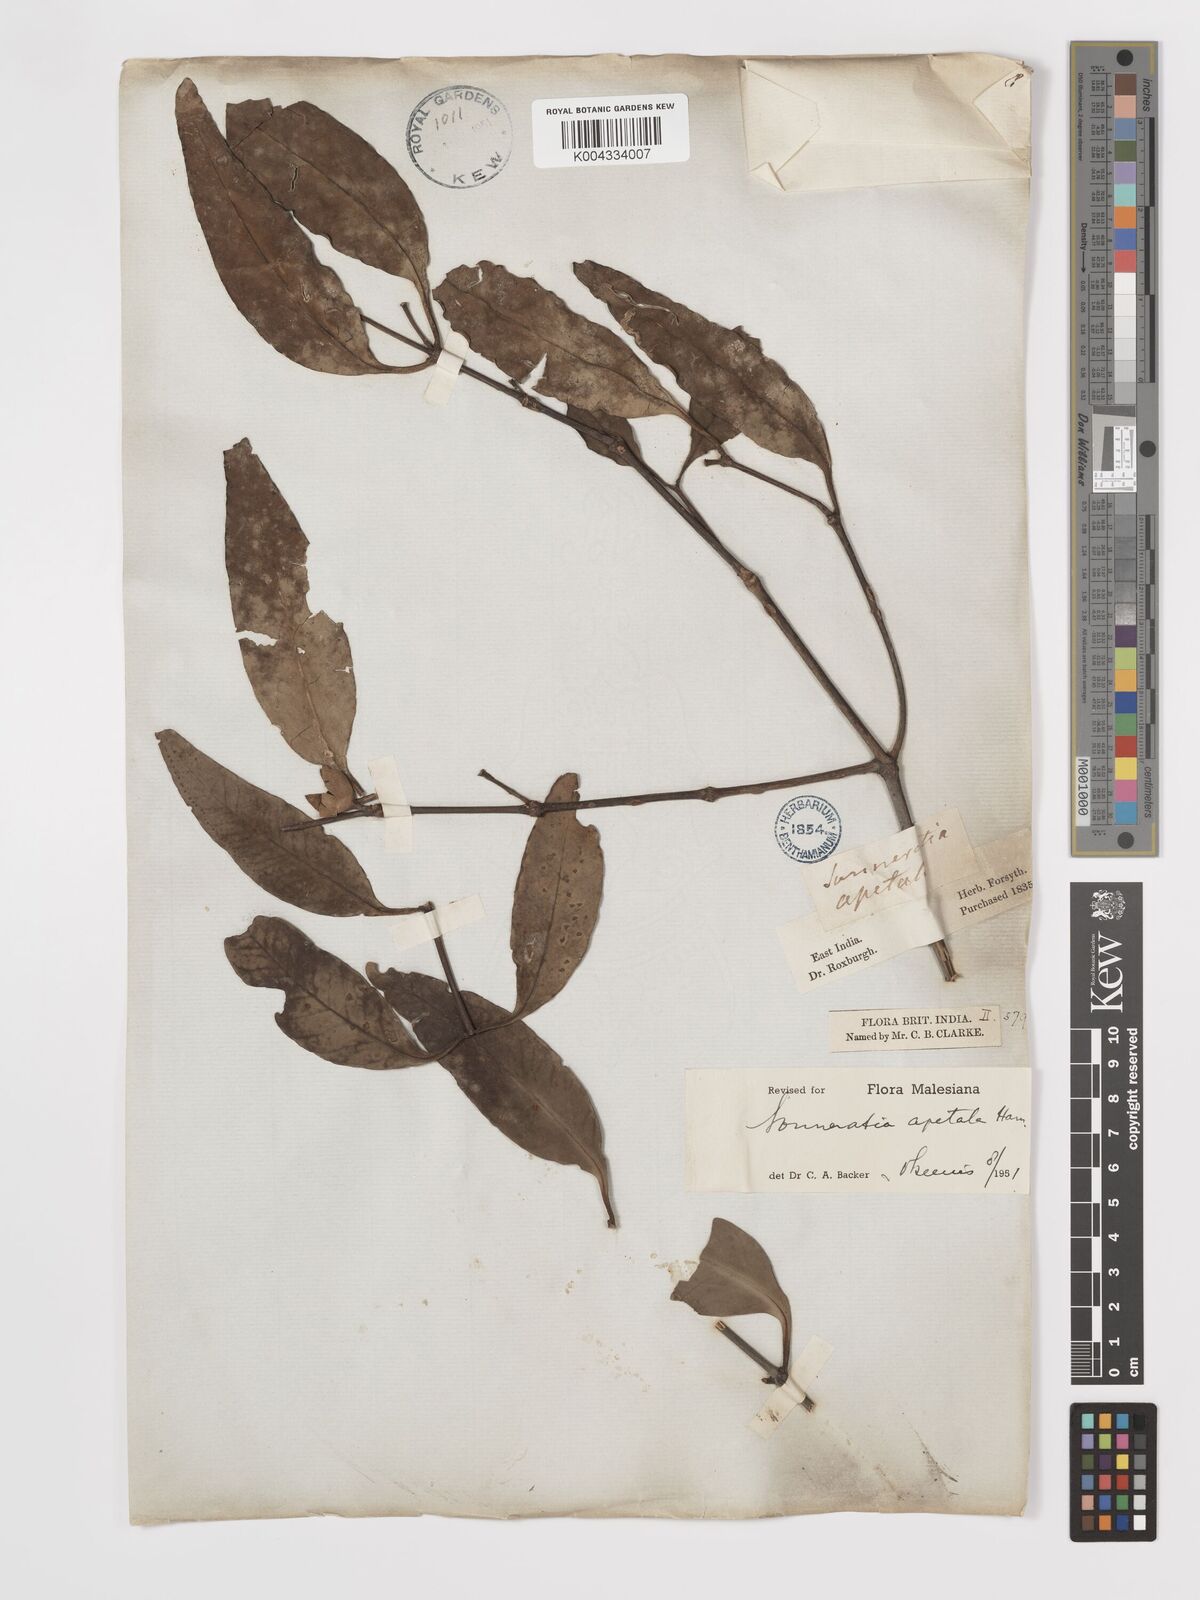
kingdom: Plantae
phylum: Tracheophyta
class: Magnoliopsida
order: Myrtales
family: Lythraceae
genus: Sonneratia
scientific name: Sonneratia apetala
